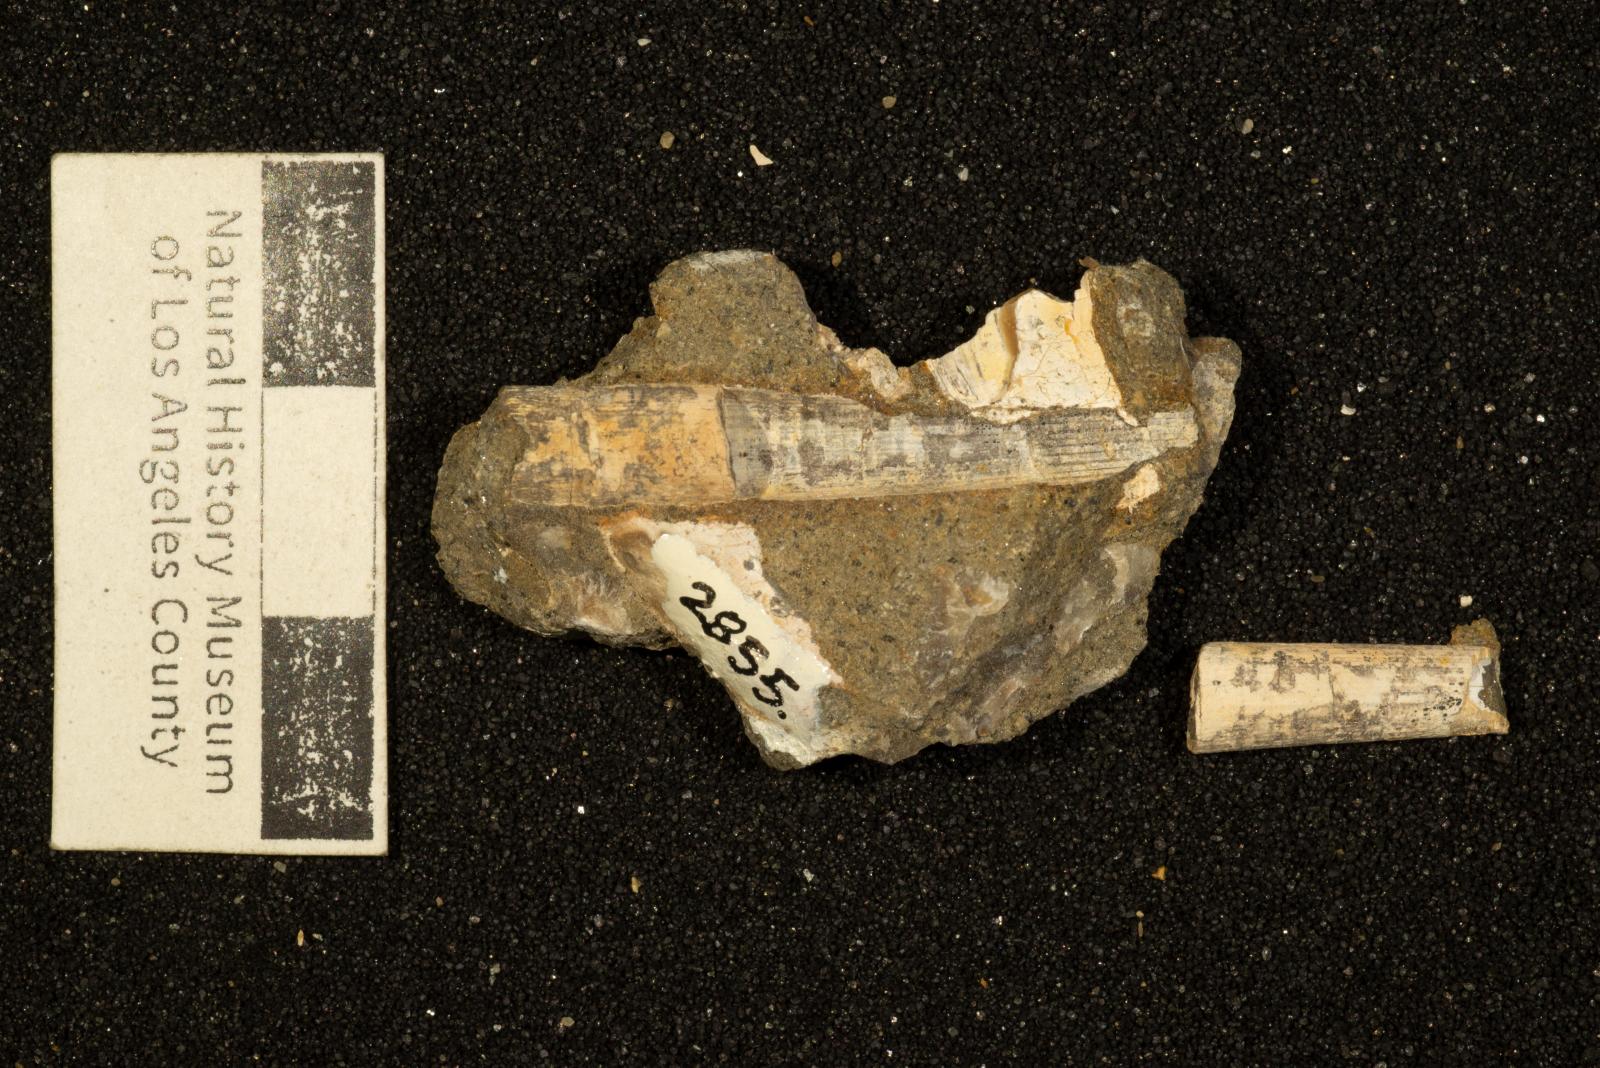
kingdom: Animalia
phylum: Mollusca
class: Scaphopoda
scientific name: Scaphopoda
